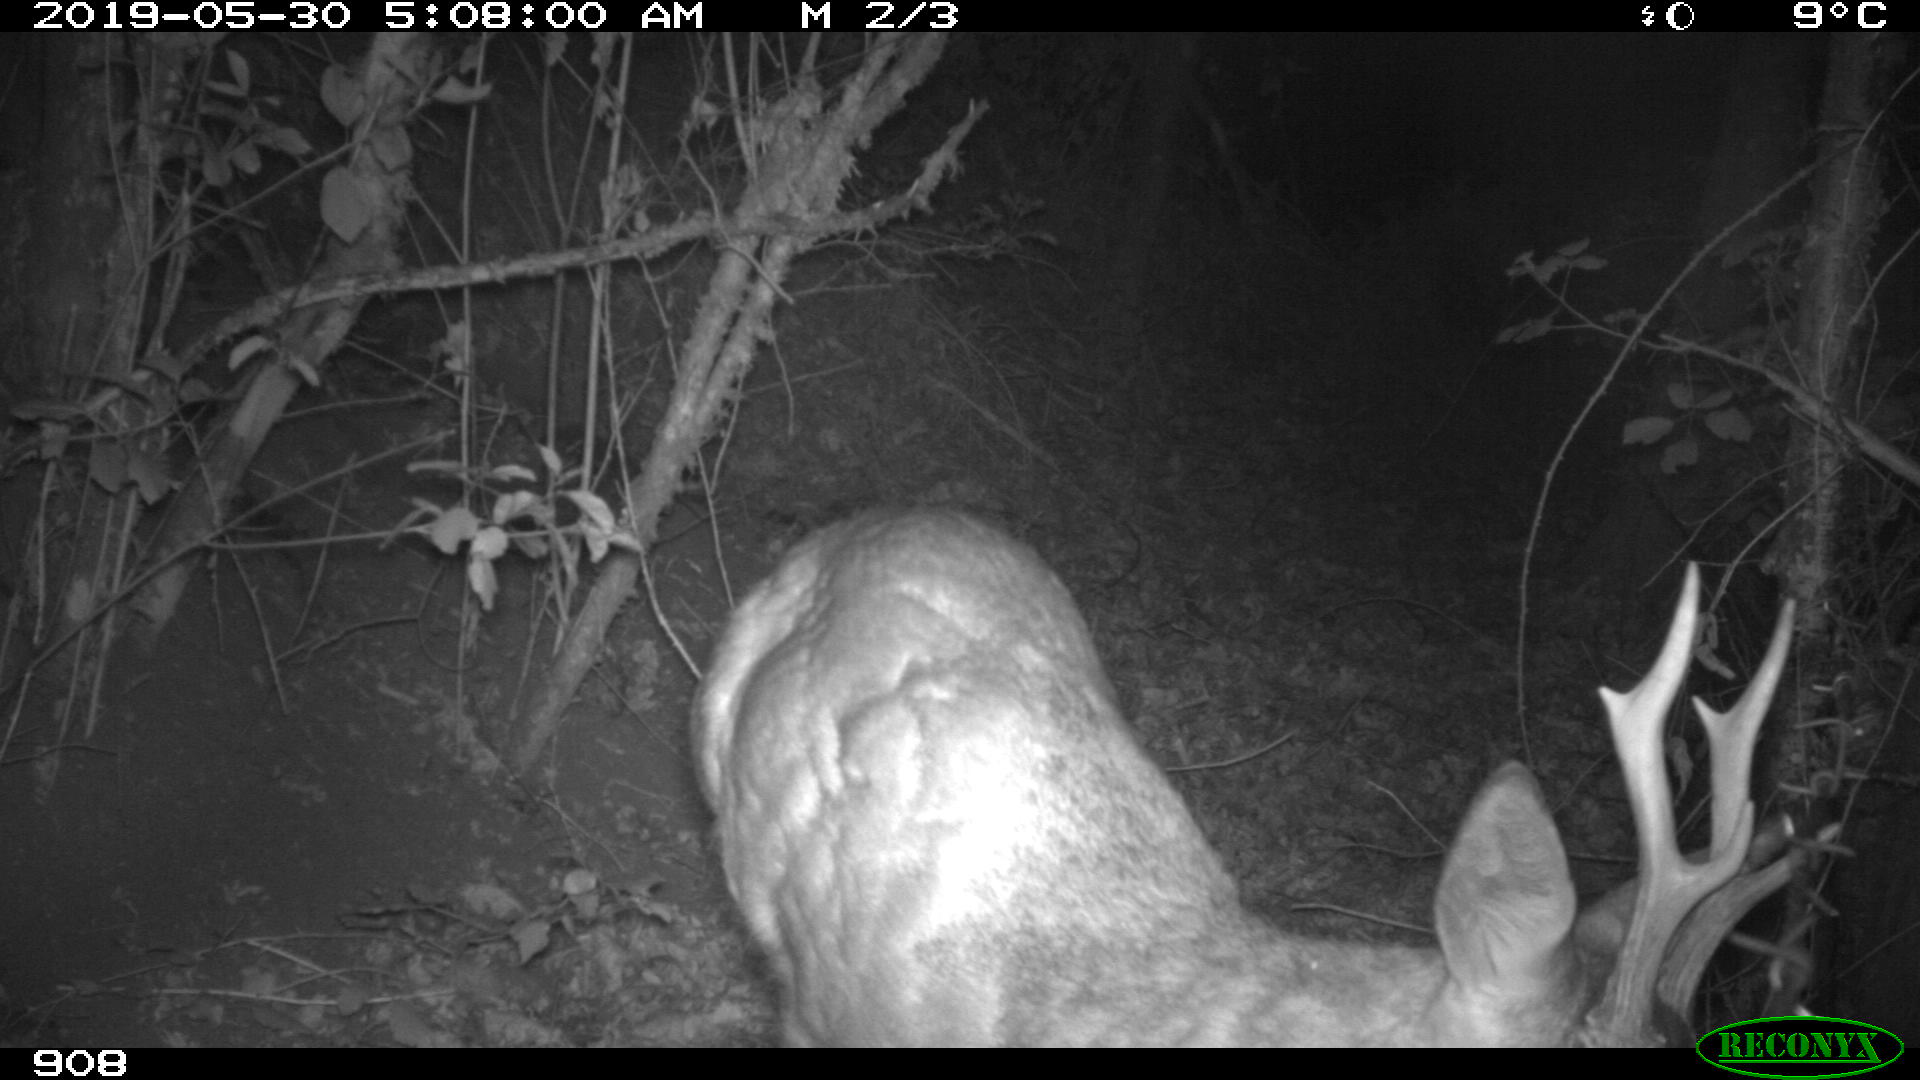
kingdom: Animalia
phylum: Chordata
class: Mammalia
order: Artiodactyla
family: Cervidae
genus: Capreolus
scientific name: Capreolus capreolus
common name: Western roe deer
